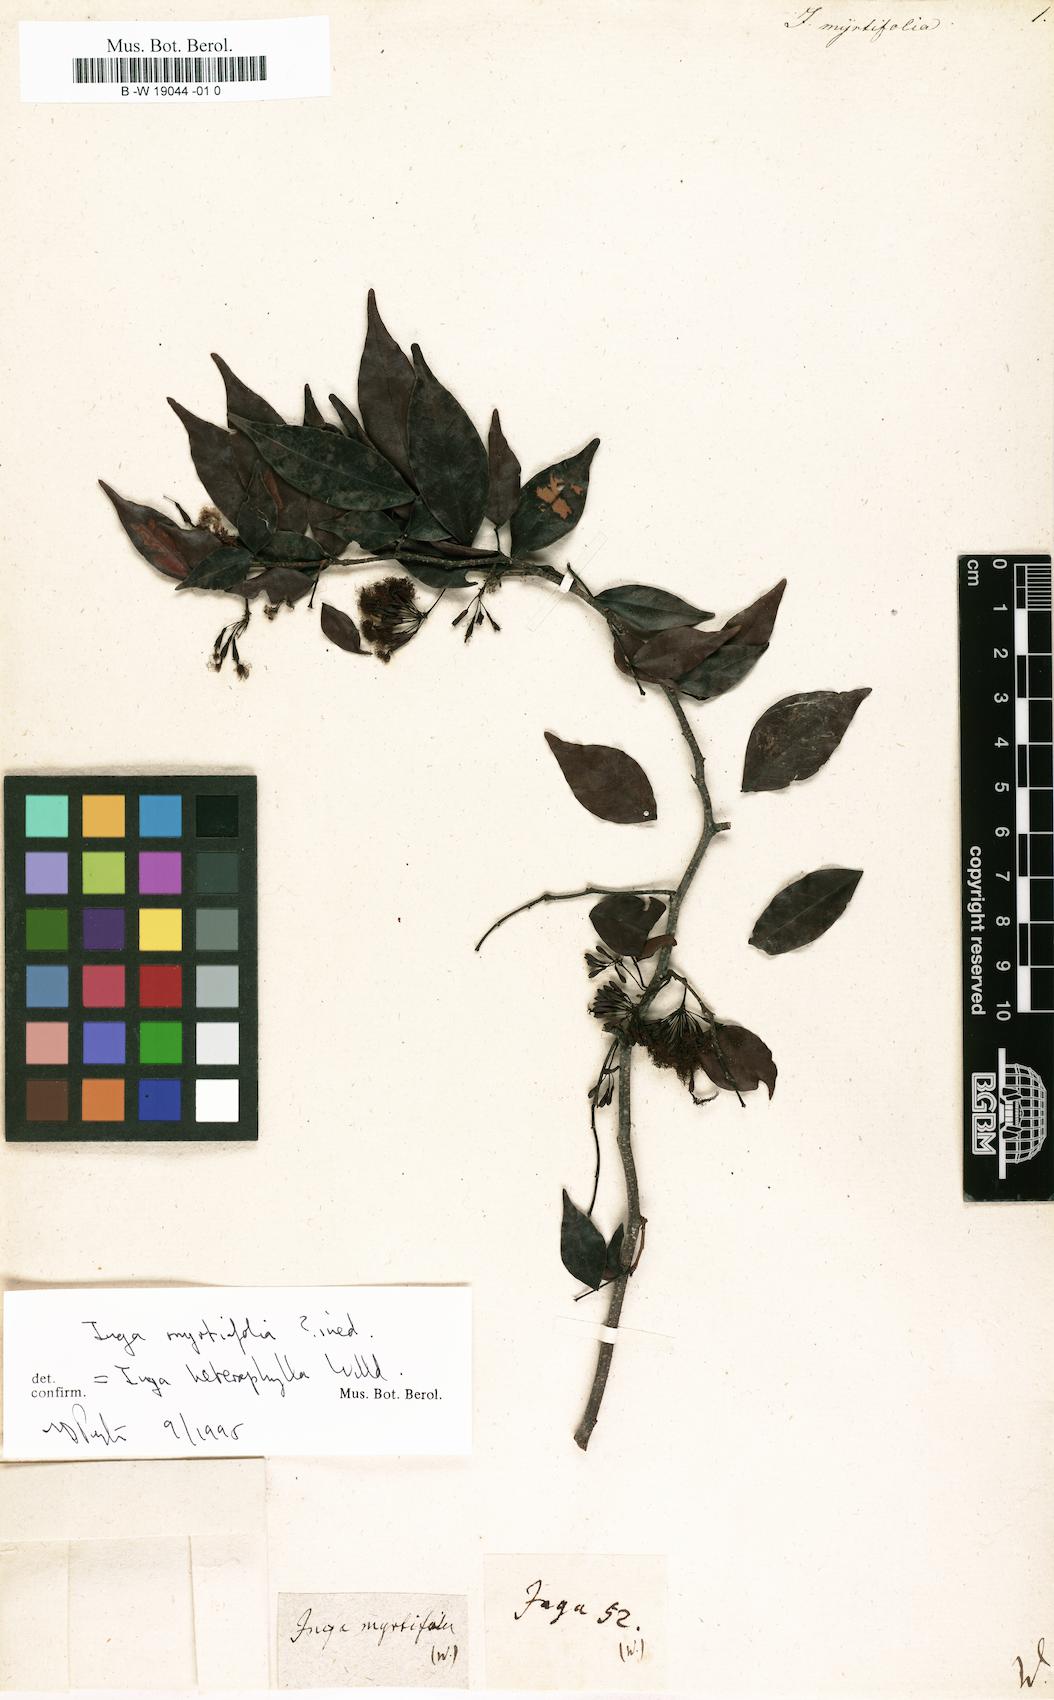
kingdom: Plantae
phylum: Tracheophyta
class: Magnoliopsida
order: Fabales
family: Fabaceae
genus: Inga
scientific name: Inga
